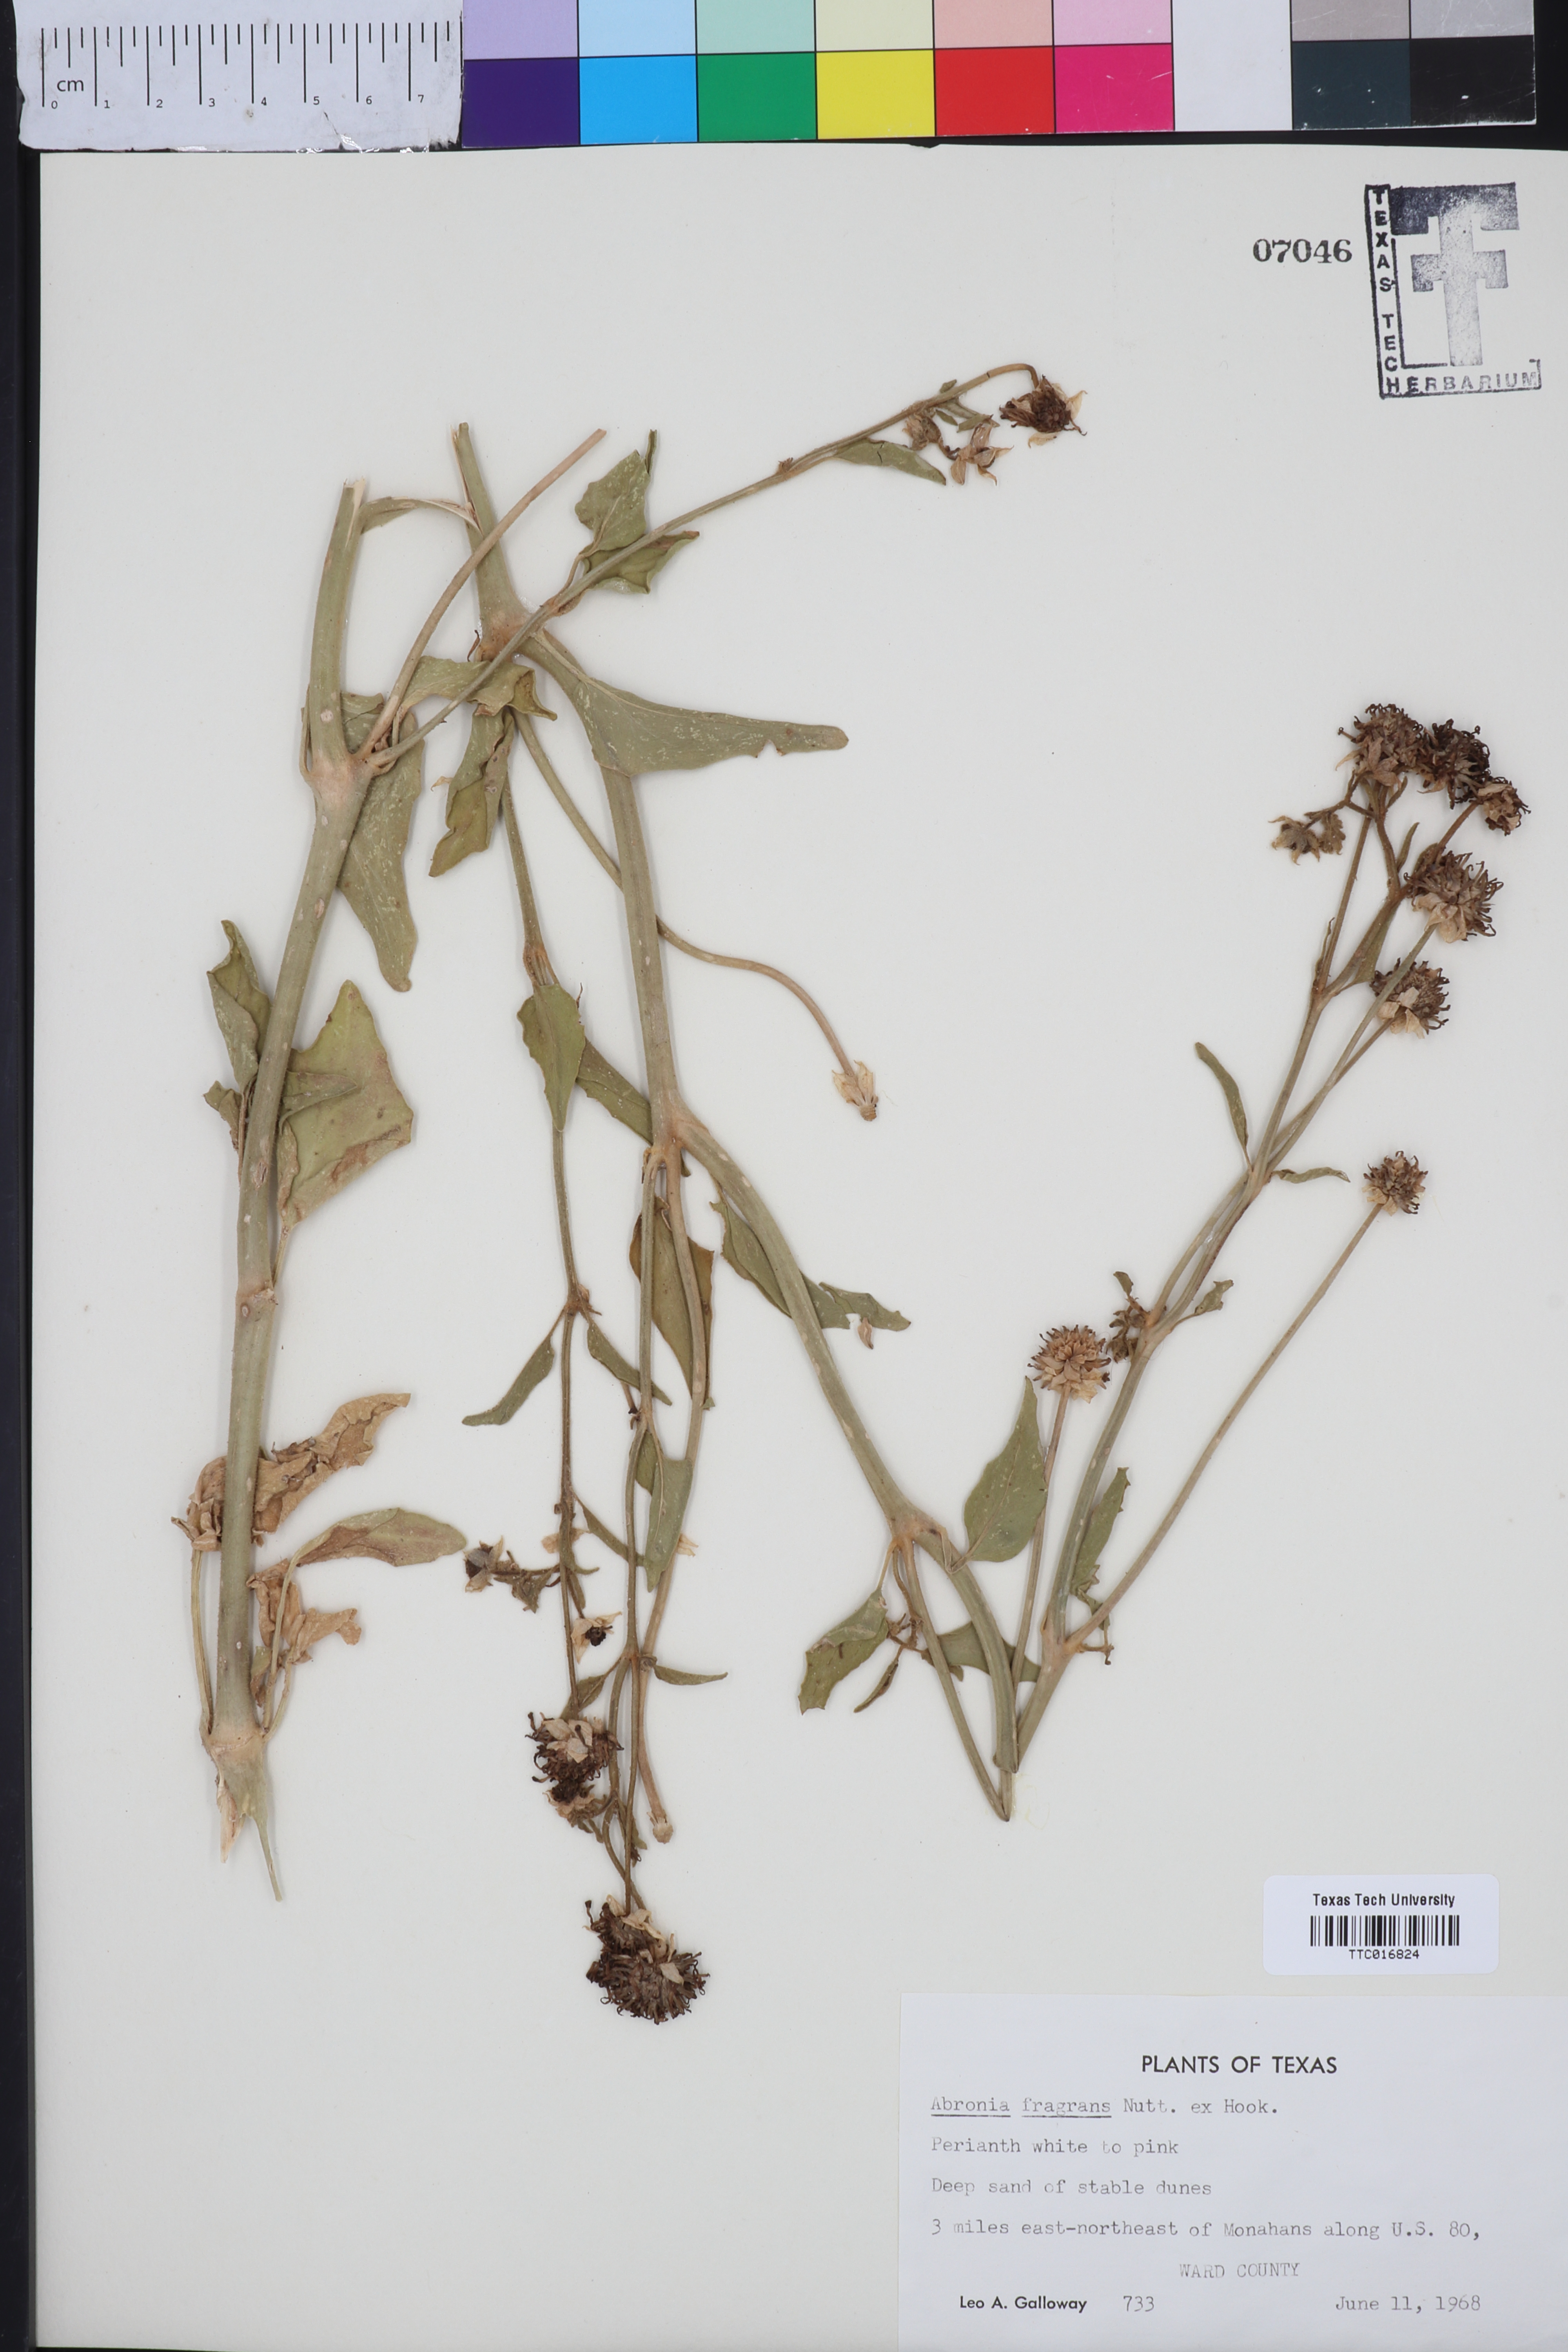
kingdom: Plantae
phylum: Tracheophyta
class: Magnoliopsida
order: Caryophyllales
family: Nyctaginaceae
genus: Abronia
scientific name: Abronia fragrans
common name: Fragrant sand-verbena
